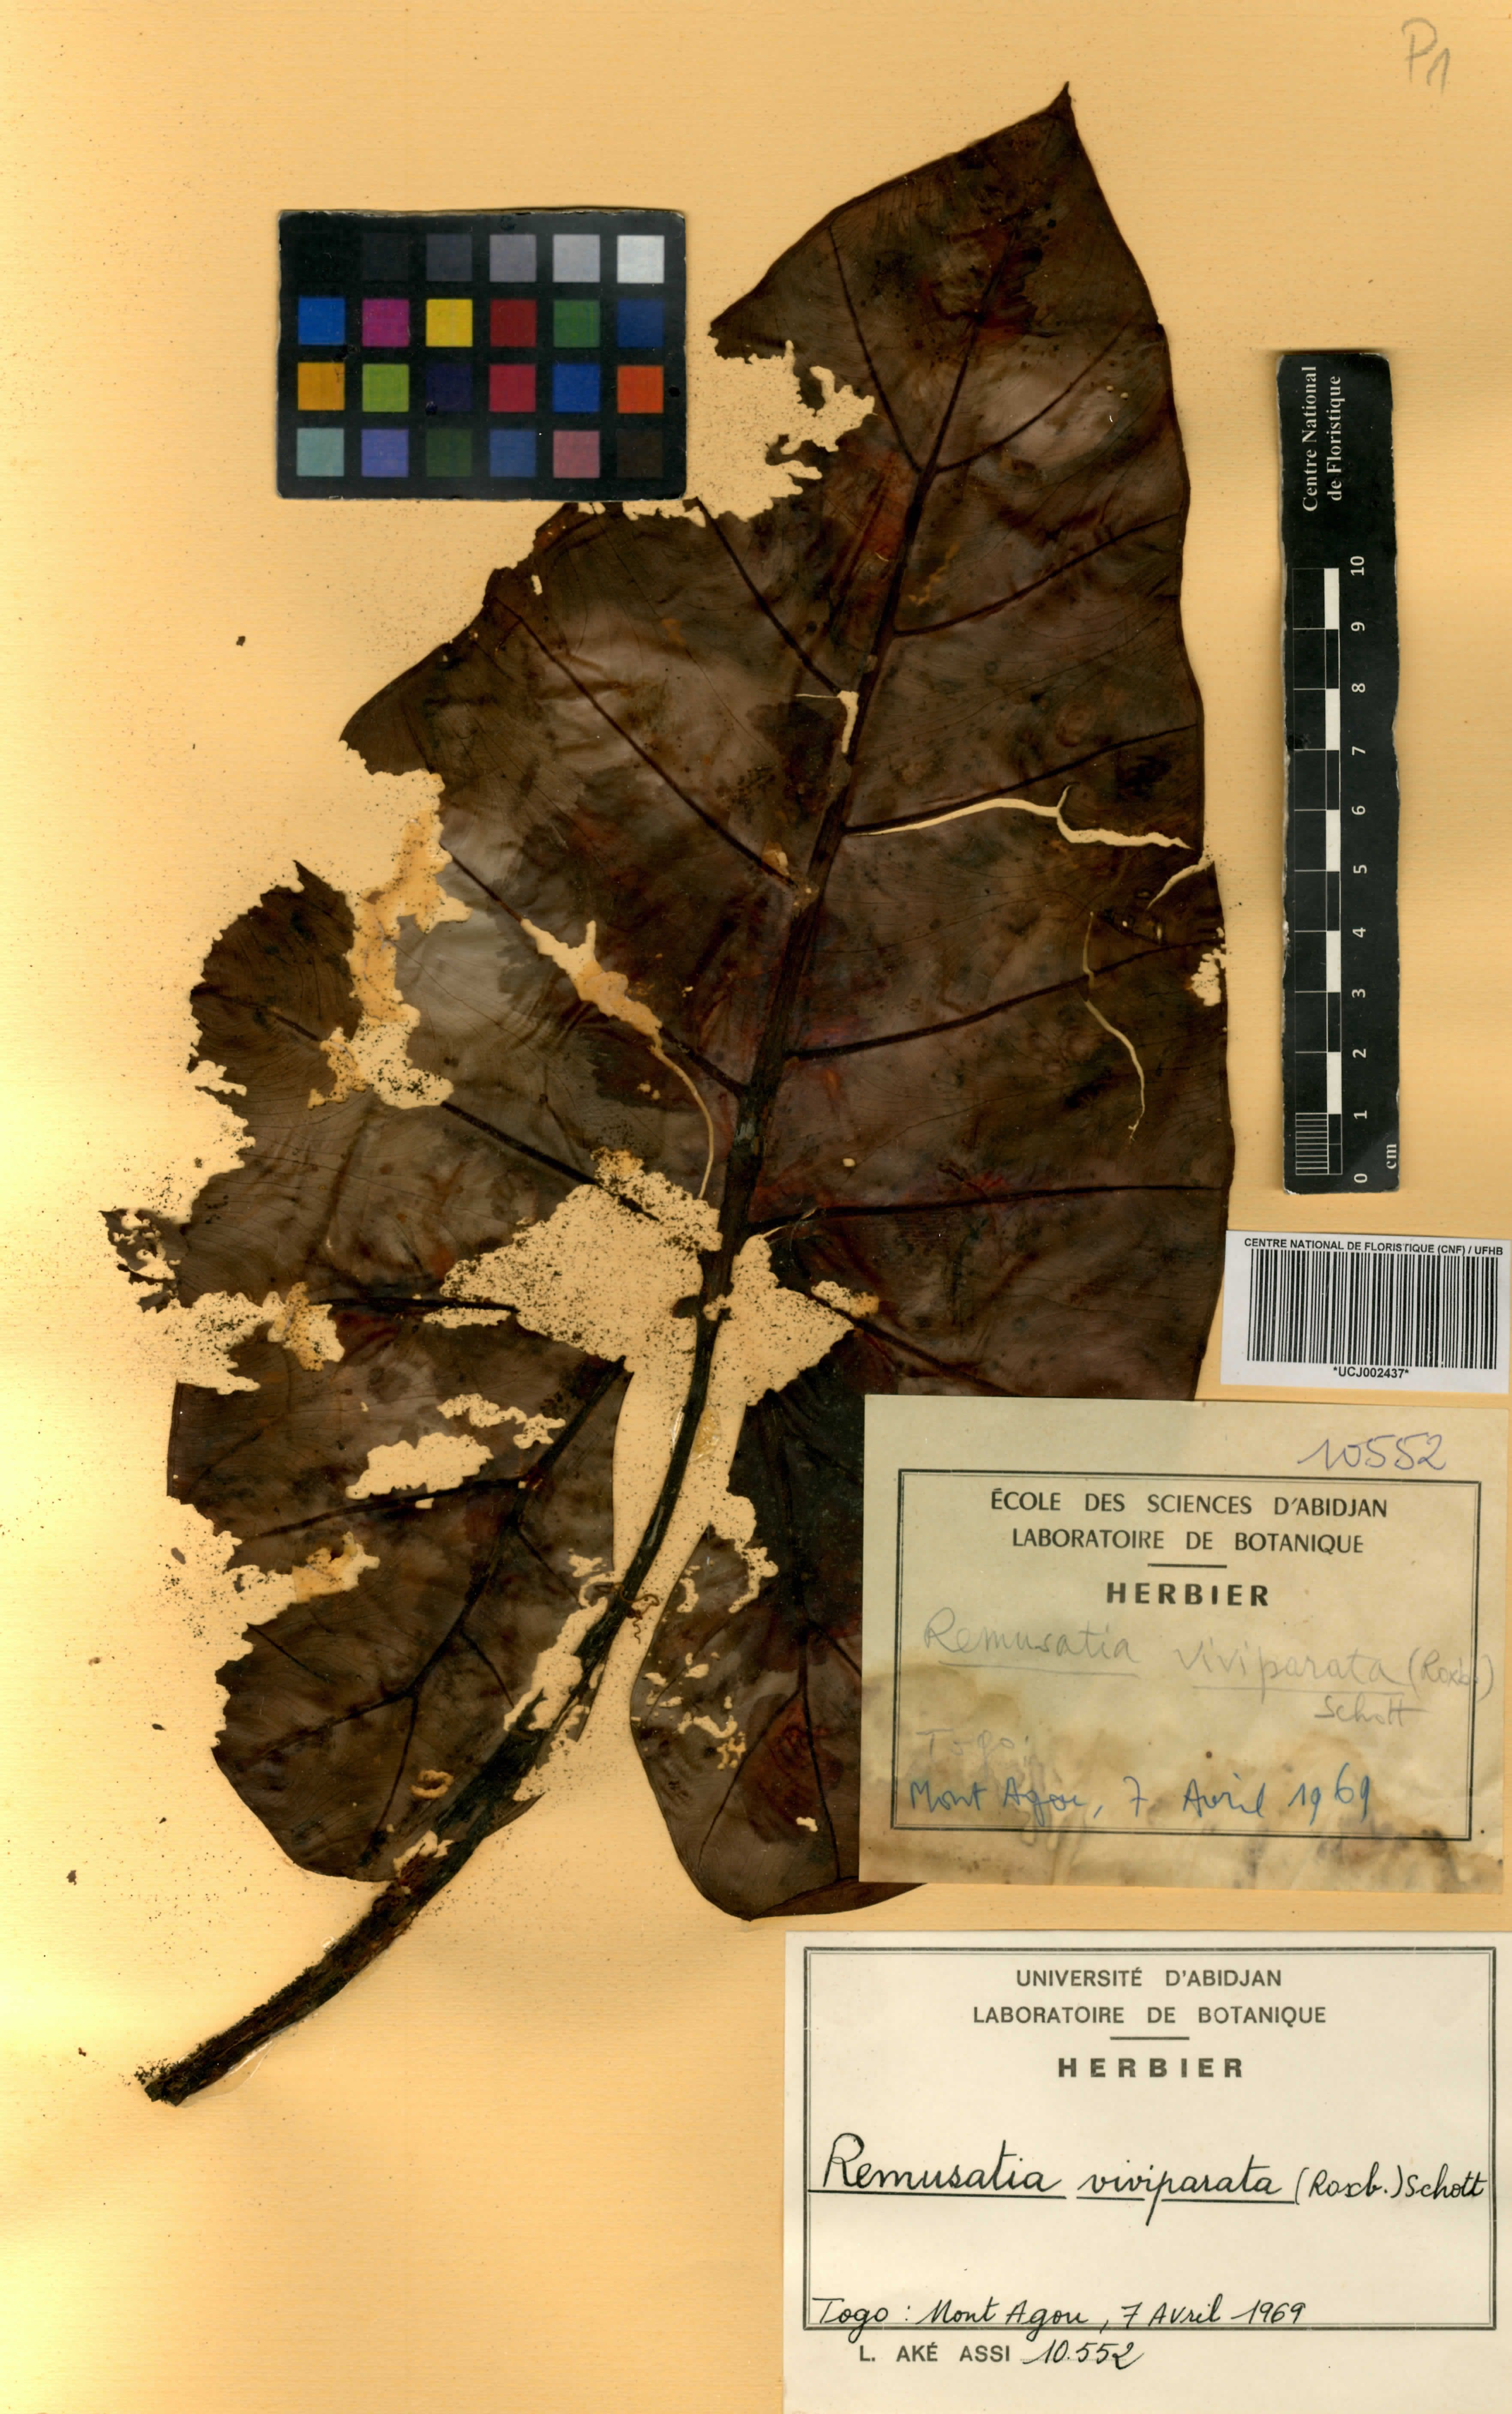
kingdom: Plantae
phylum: Tracheophyta
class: Liliopsida
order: Alismatales
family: Araceae
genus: Remusatia
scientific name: Remusatia vivipara
